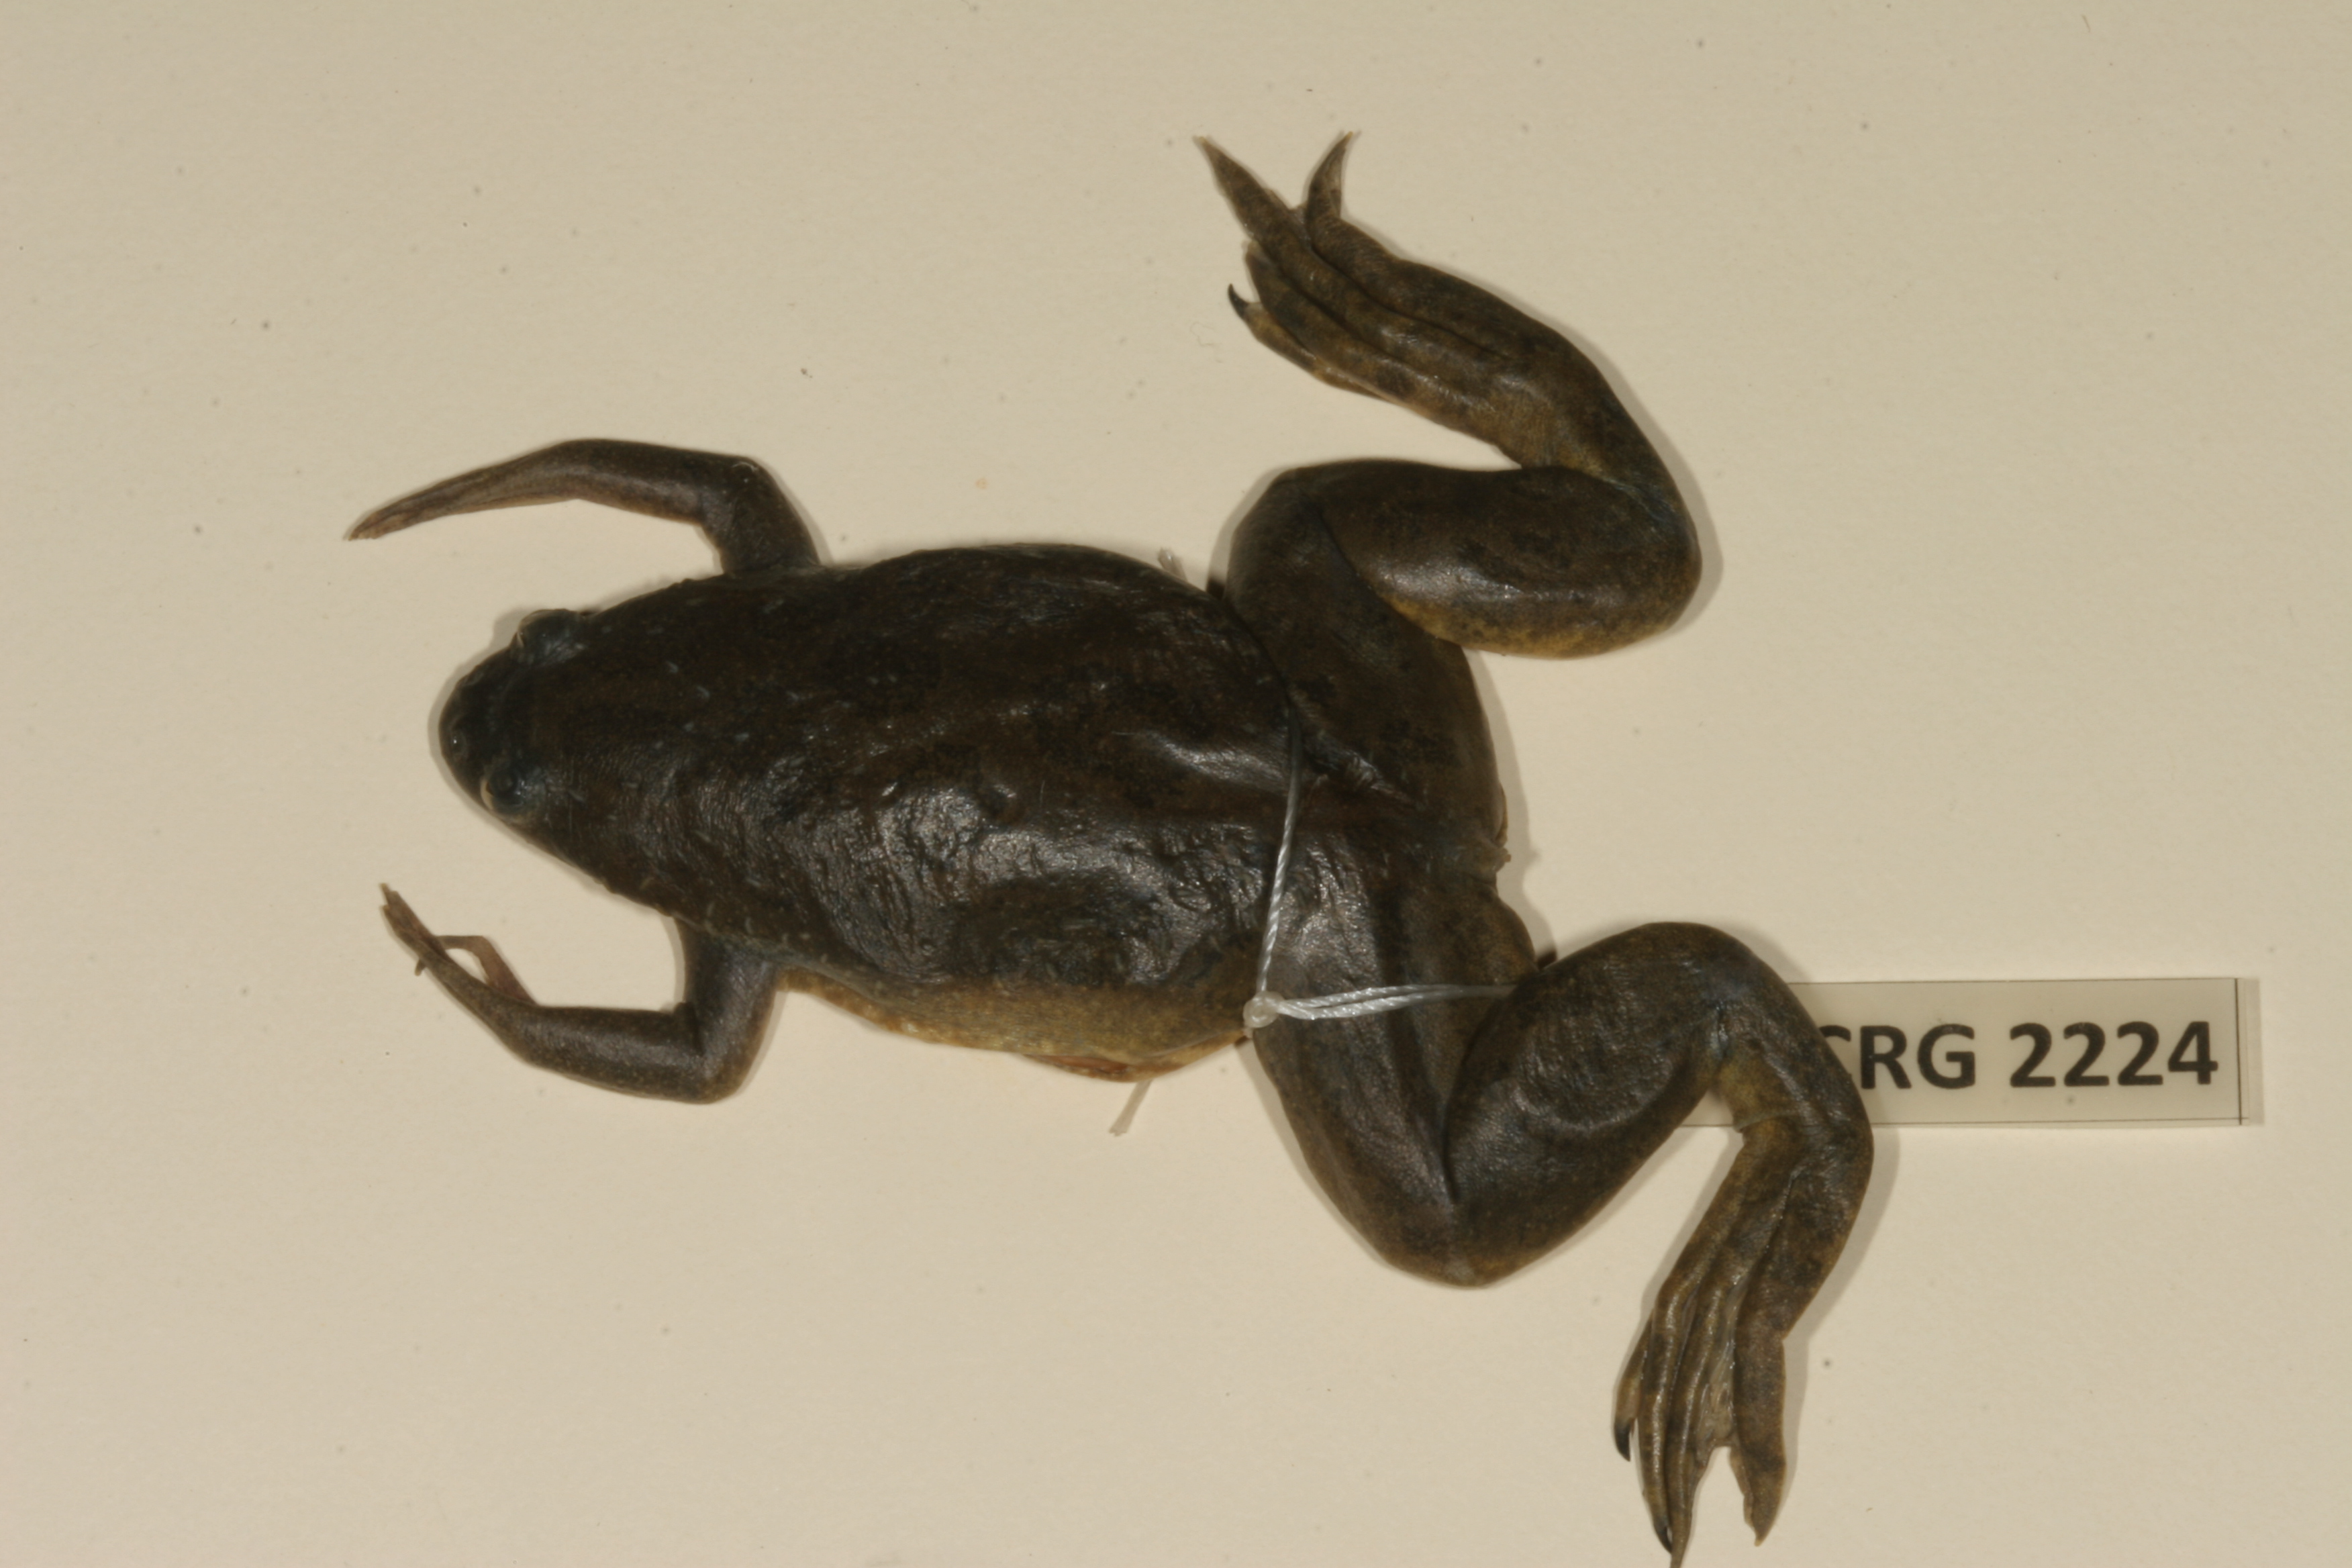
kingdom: Animalia
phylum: Chordata
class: Amphibia
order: Anura
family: Pipidae
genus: Xenopus
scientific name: Xenopus muelleri
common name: Muller's clawed frog
